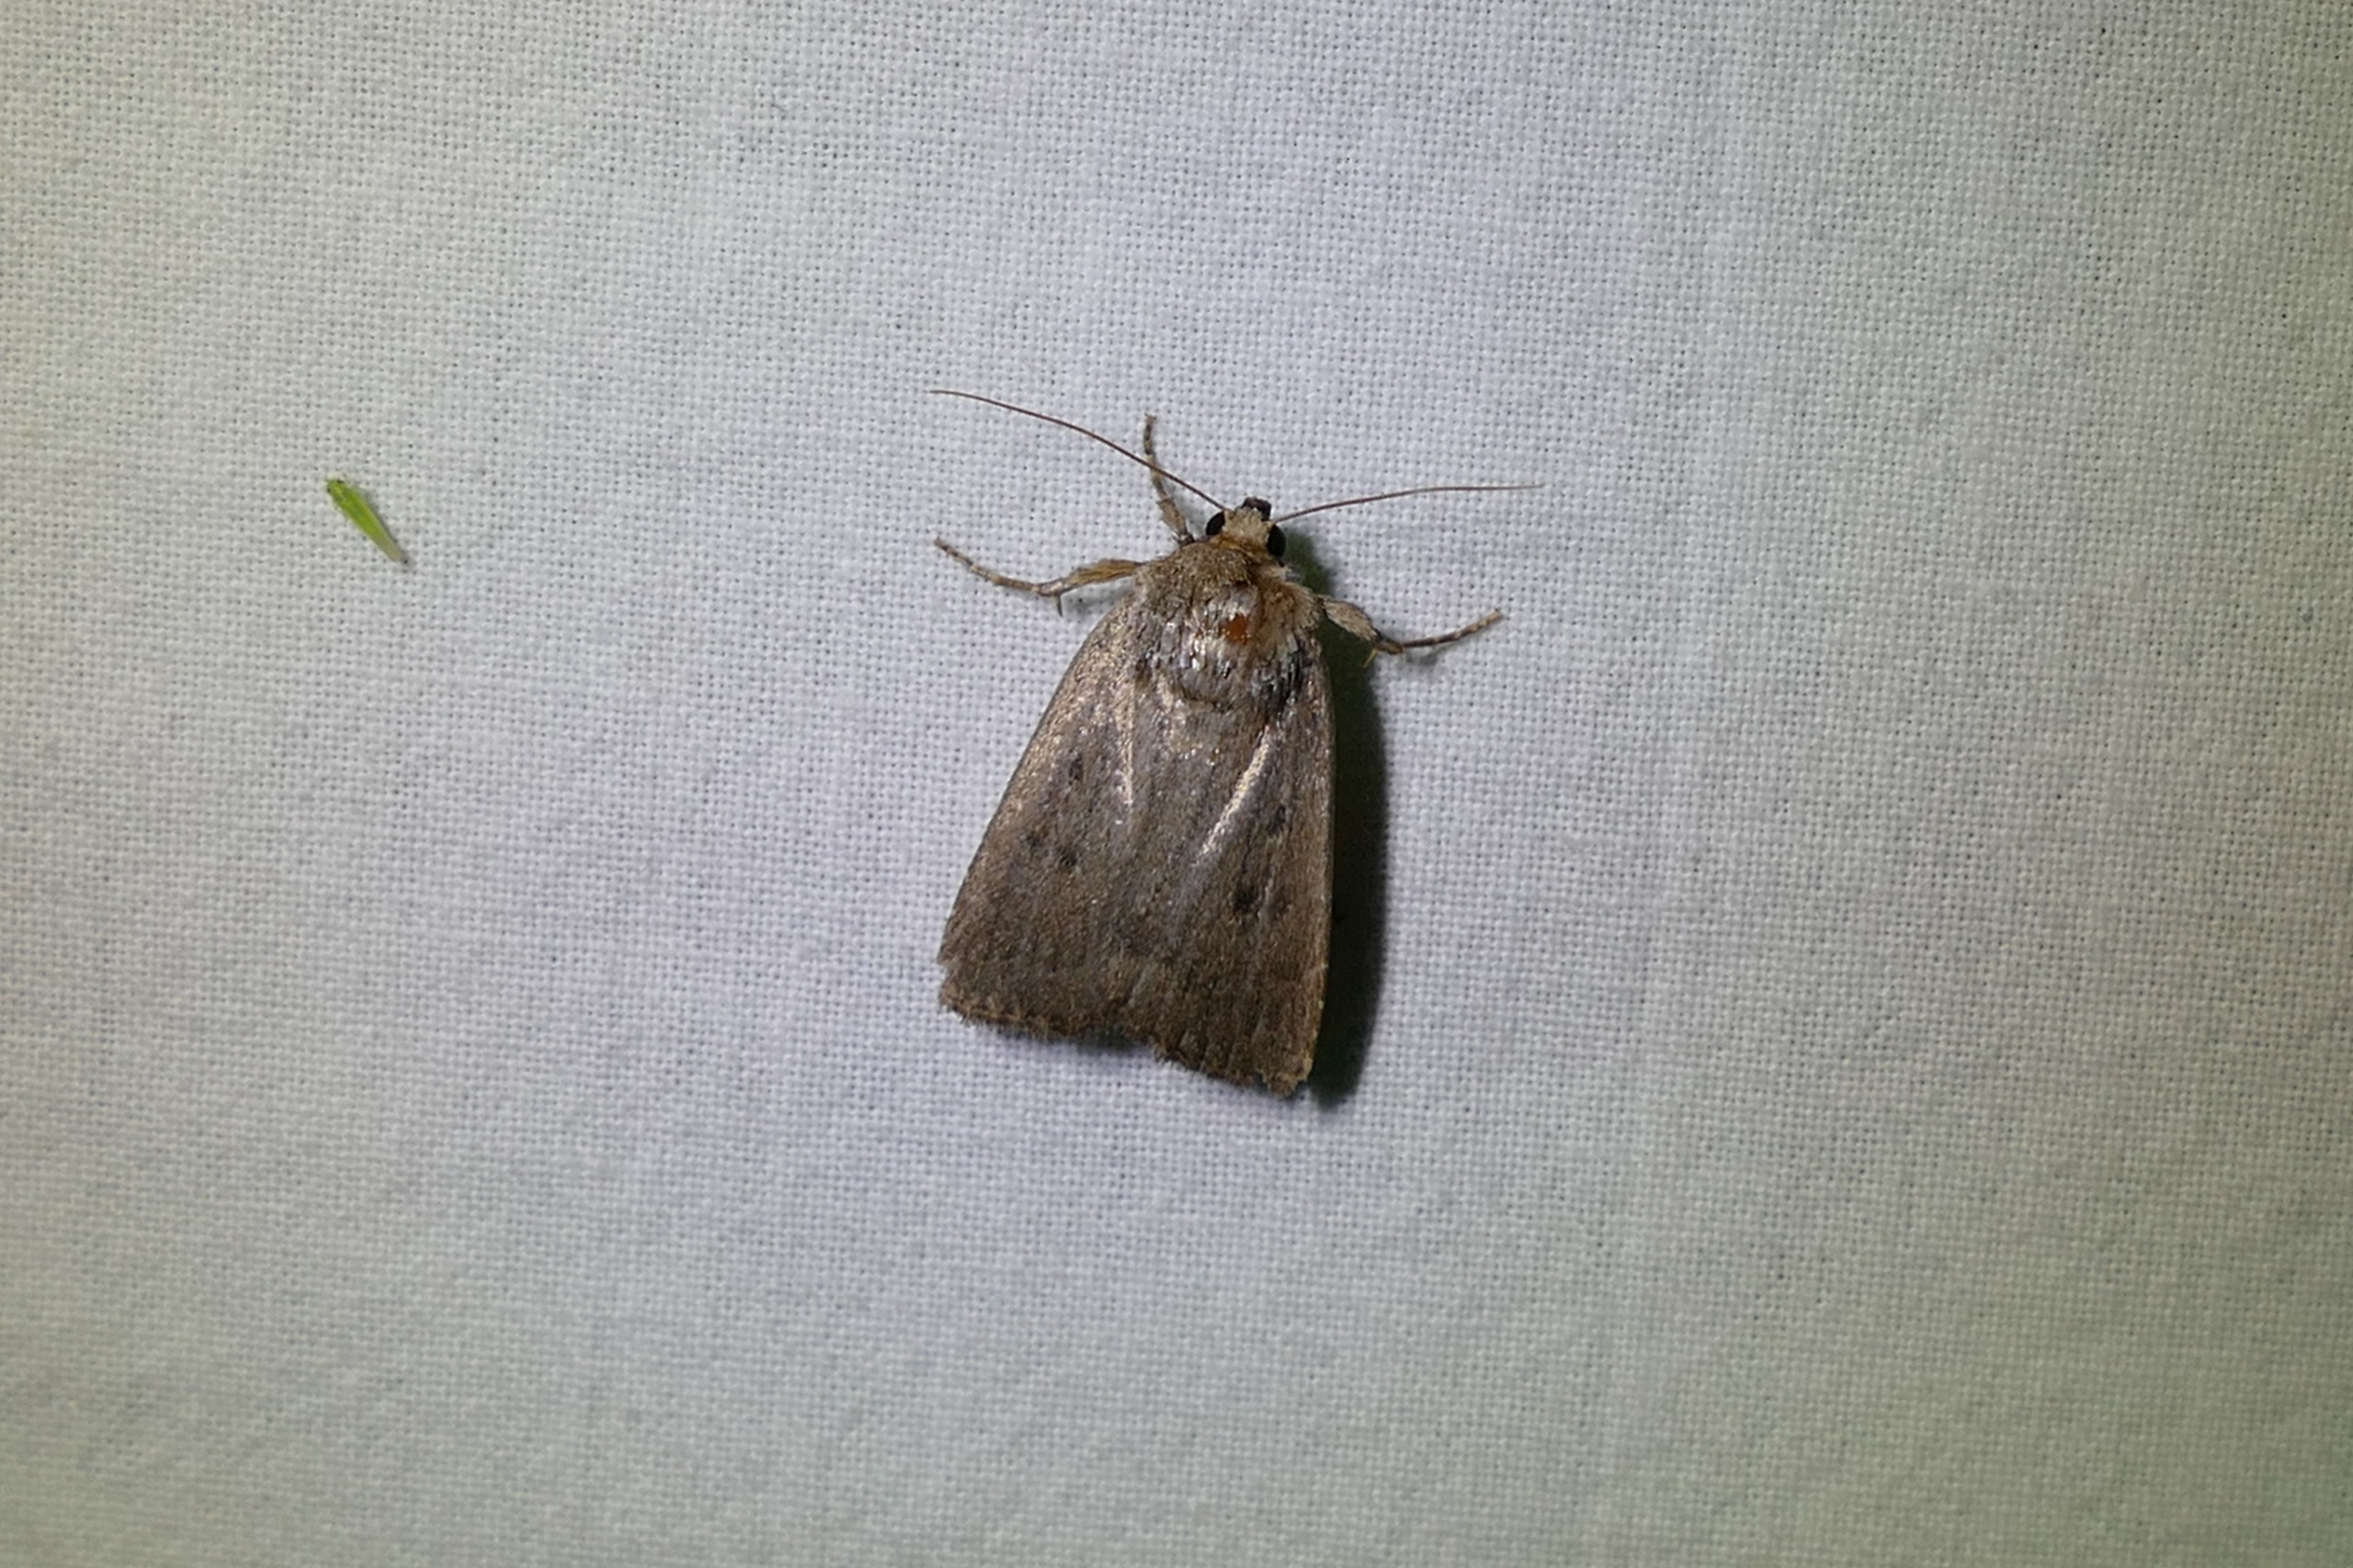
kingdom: Animalia
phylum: Arthropoda
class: Insecta
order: Lepidoptera
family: Noctuidae
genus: Amphipyra
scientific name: Amphipyra tragopoginis
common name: Blyantsugle
